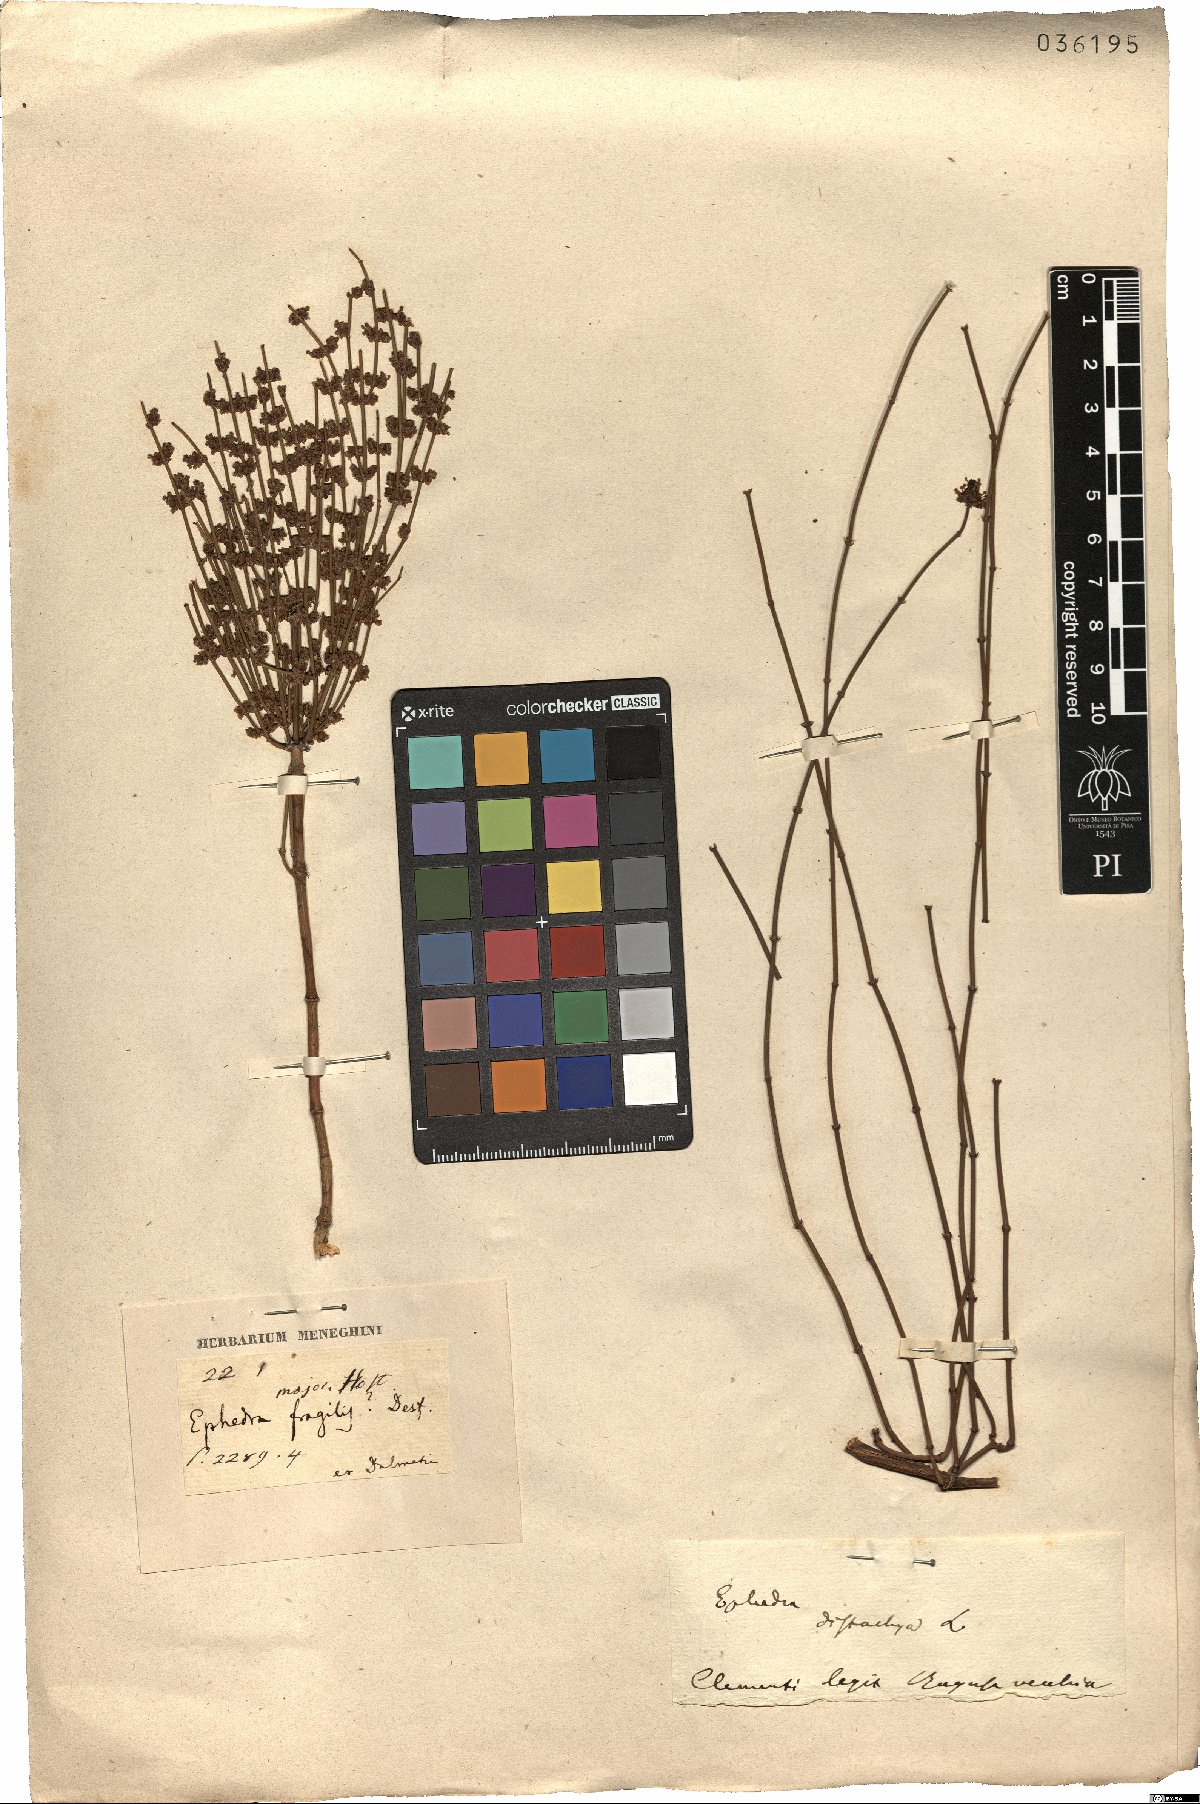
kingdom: Plantae
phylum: Tracheophyta
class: Gnetopsida
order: Ephedrales
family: Ephedraceae
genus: Ephedra
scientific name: Ephedra distachya
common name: Sea grape
